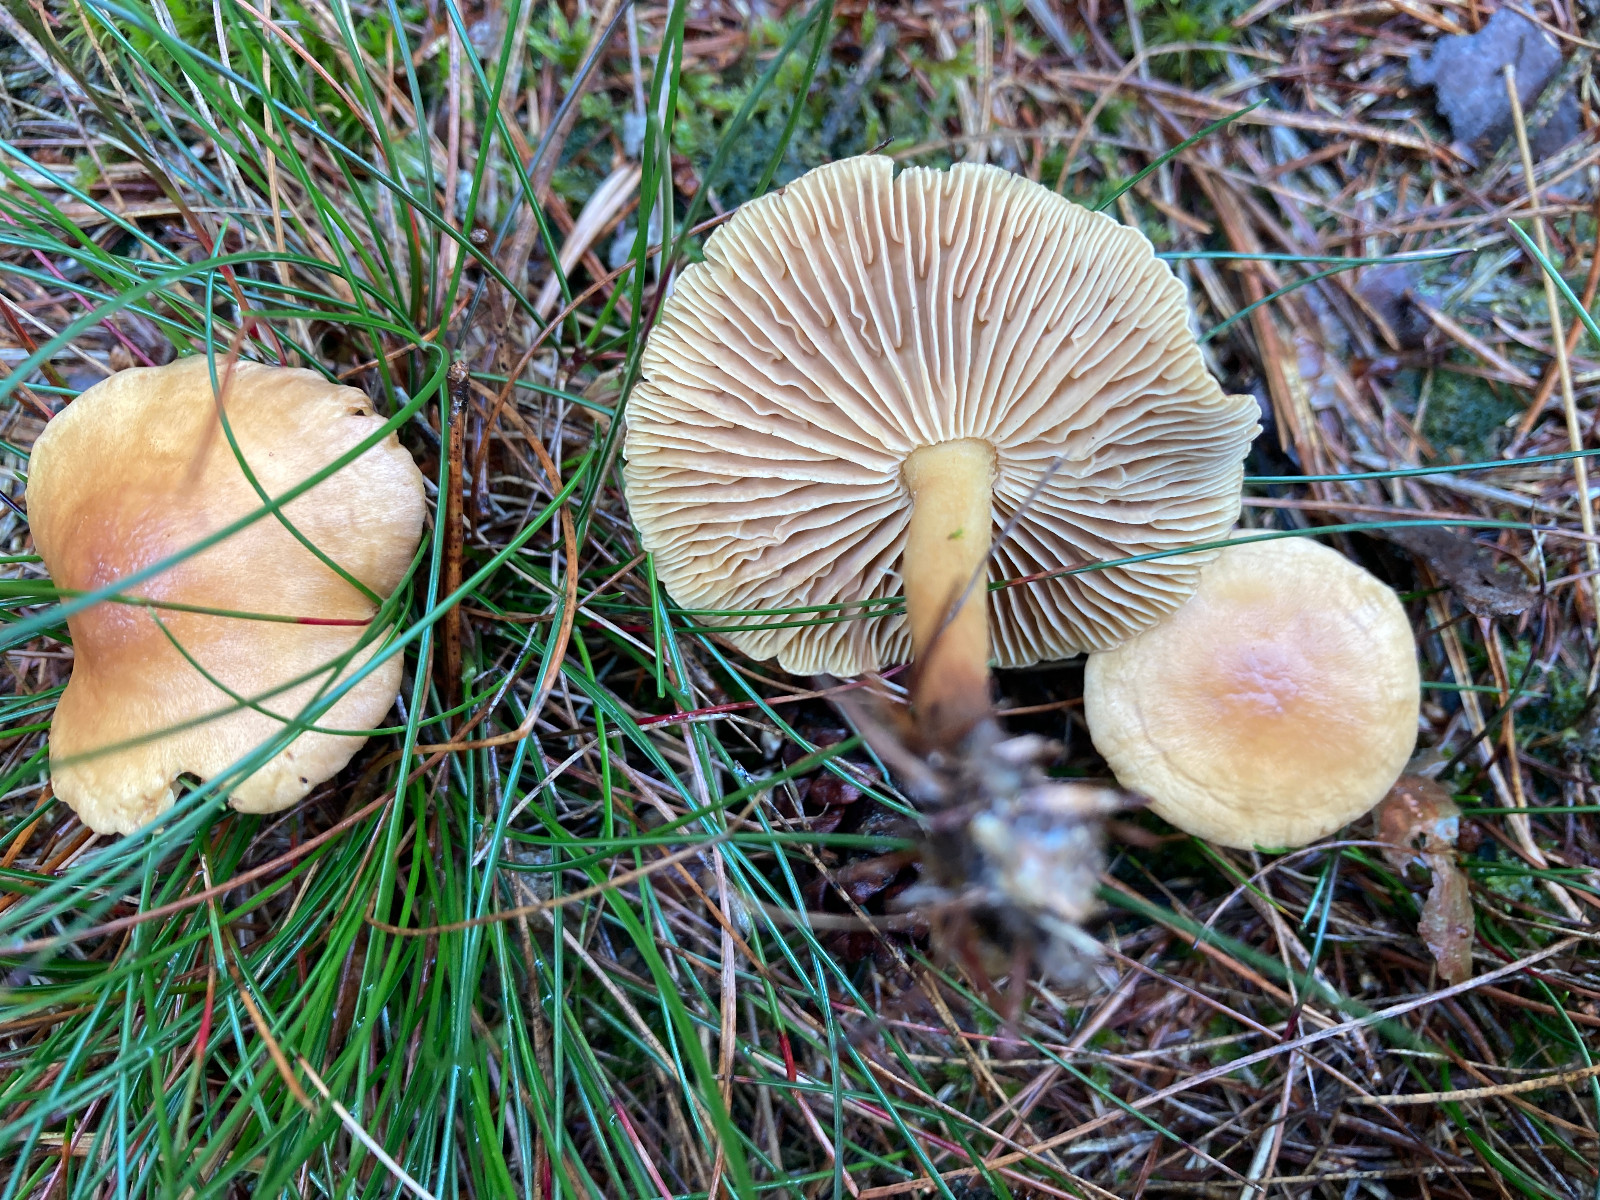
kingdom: Fungi
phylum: Basidiomycota
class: Agaricomycetes
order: Agaricales
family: Omphalotaceae
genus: Collybiopsis
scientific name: Collybiopsis peronata
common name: bestøvlet fladhat
